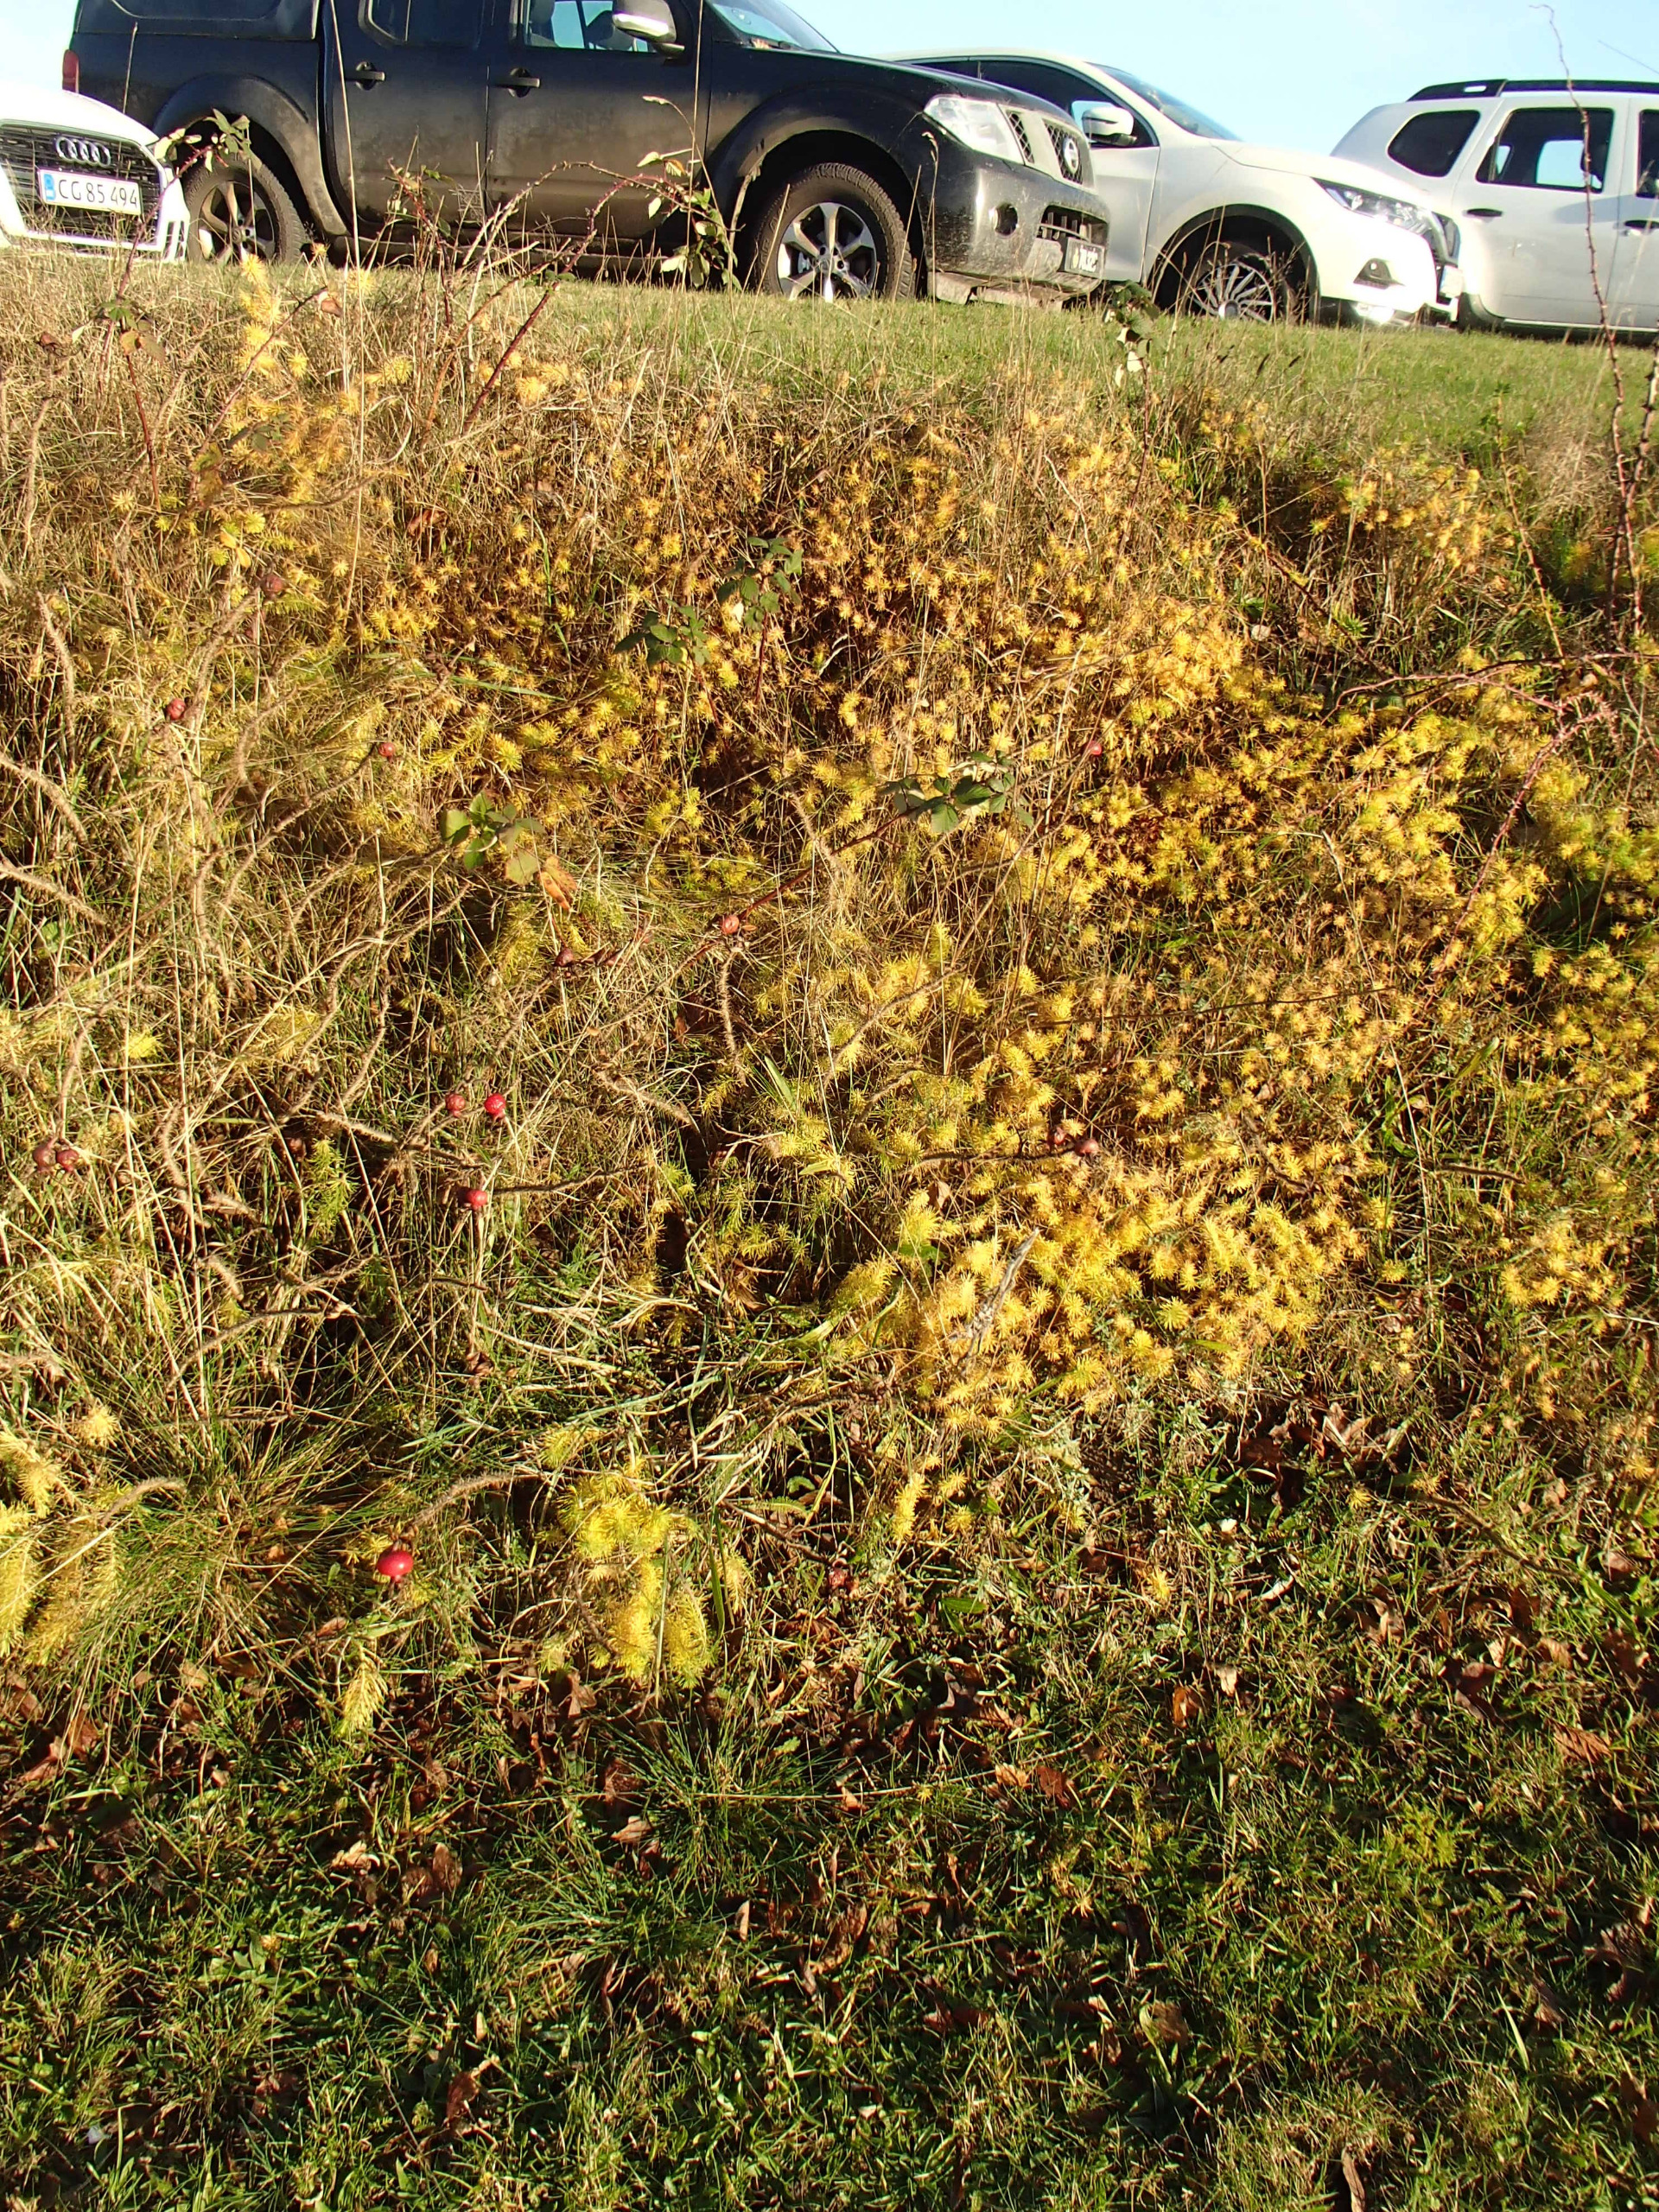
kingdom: Plantae
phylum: Tracheophyta
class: Magnoliopsida
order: Malpighiales
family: Euphorbiaceae
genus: Euphorbia
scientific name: Euphorbia cyparissias
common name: Cypres-vortemælk
